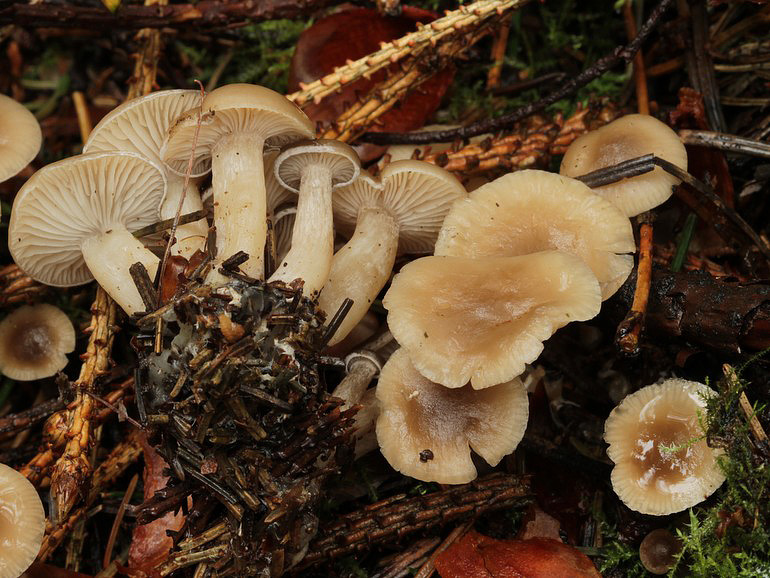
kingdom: Fungi
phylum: Basidiomycota
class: Agaricomycetes
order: Agaricales
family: Tricholomataceae
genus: Clitocybe
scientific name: Clitocybe fragrans
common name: vellugtende tragthat
